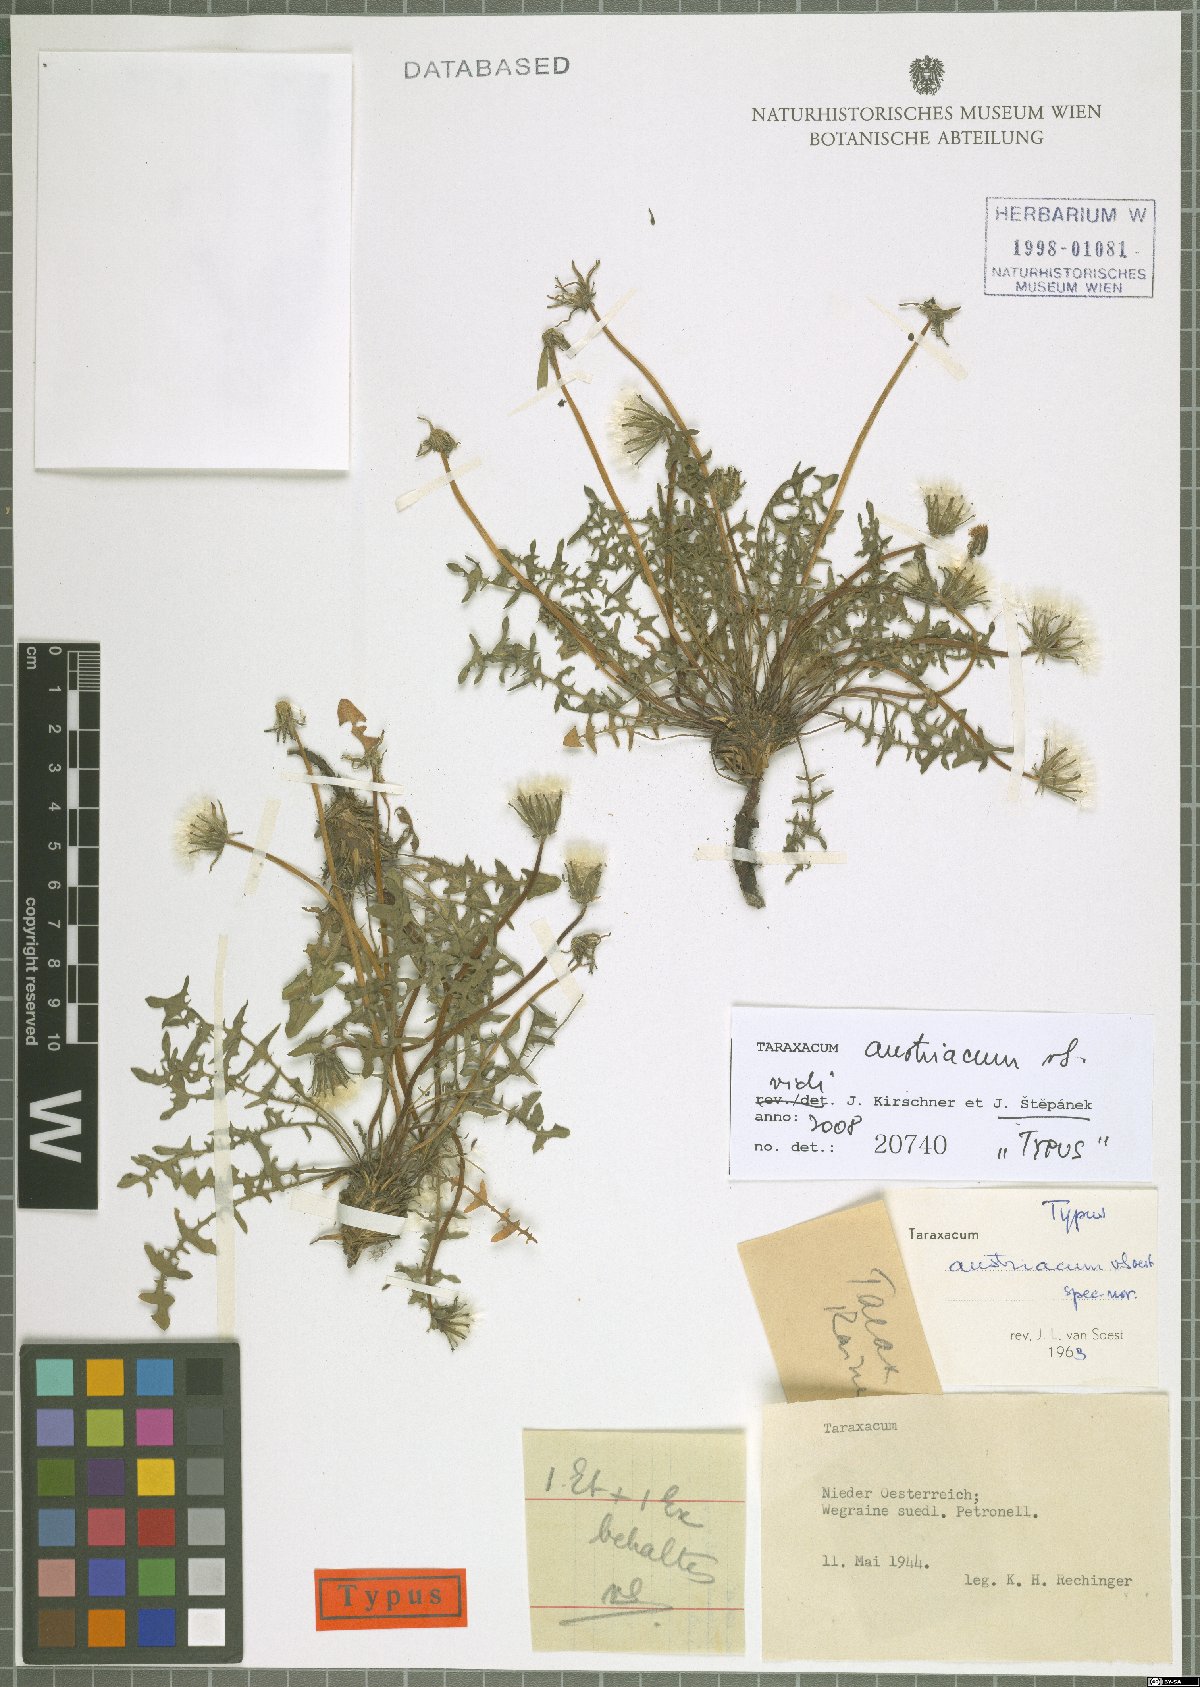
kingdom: Plantae
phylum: Tracheophyta
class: Magnoliopsida
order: Asterales
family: Asteraceae
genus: Taraxacum
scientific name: Taraxacum erythrospermum
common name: Rock dandelion
